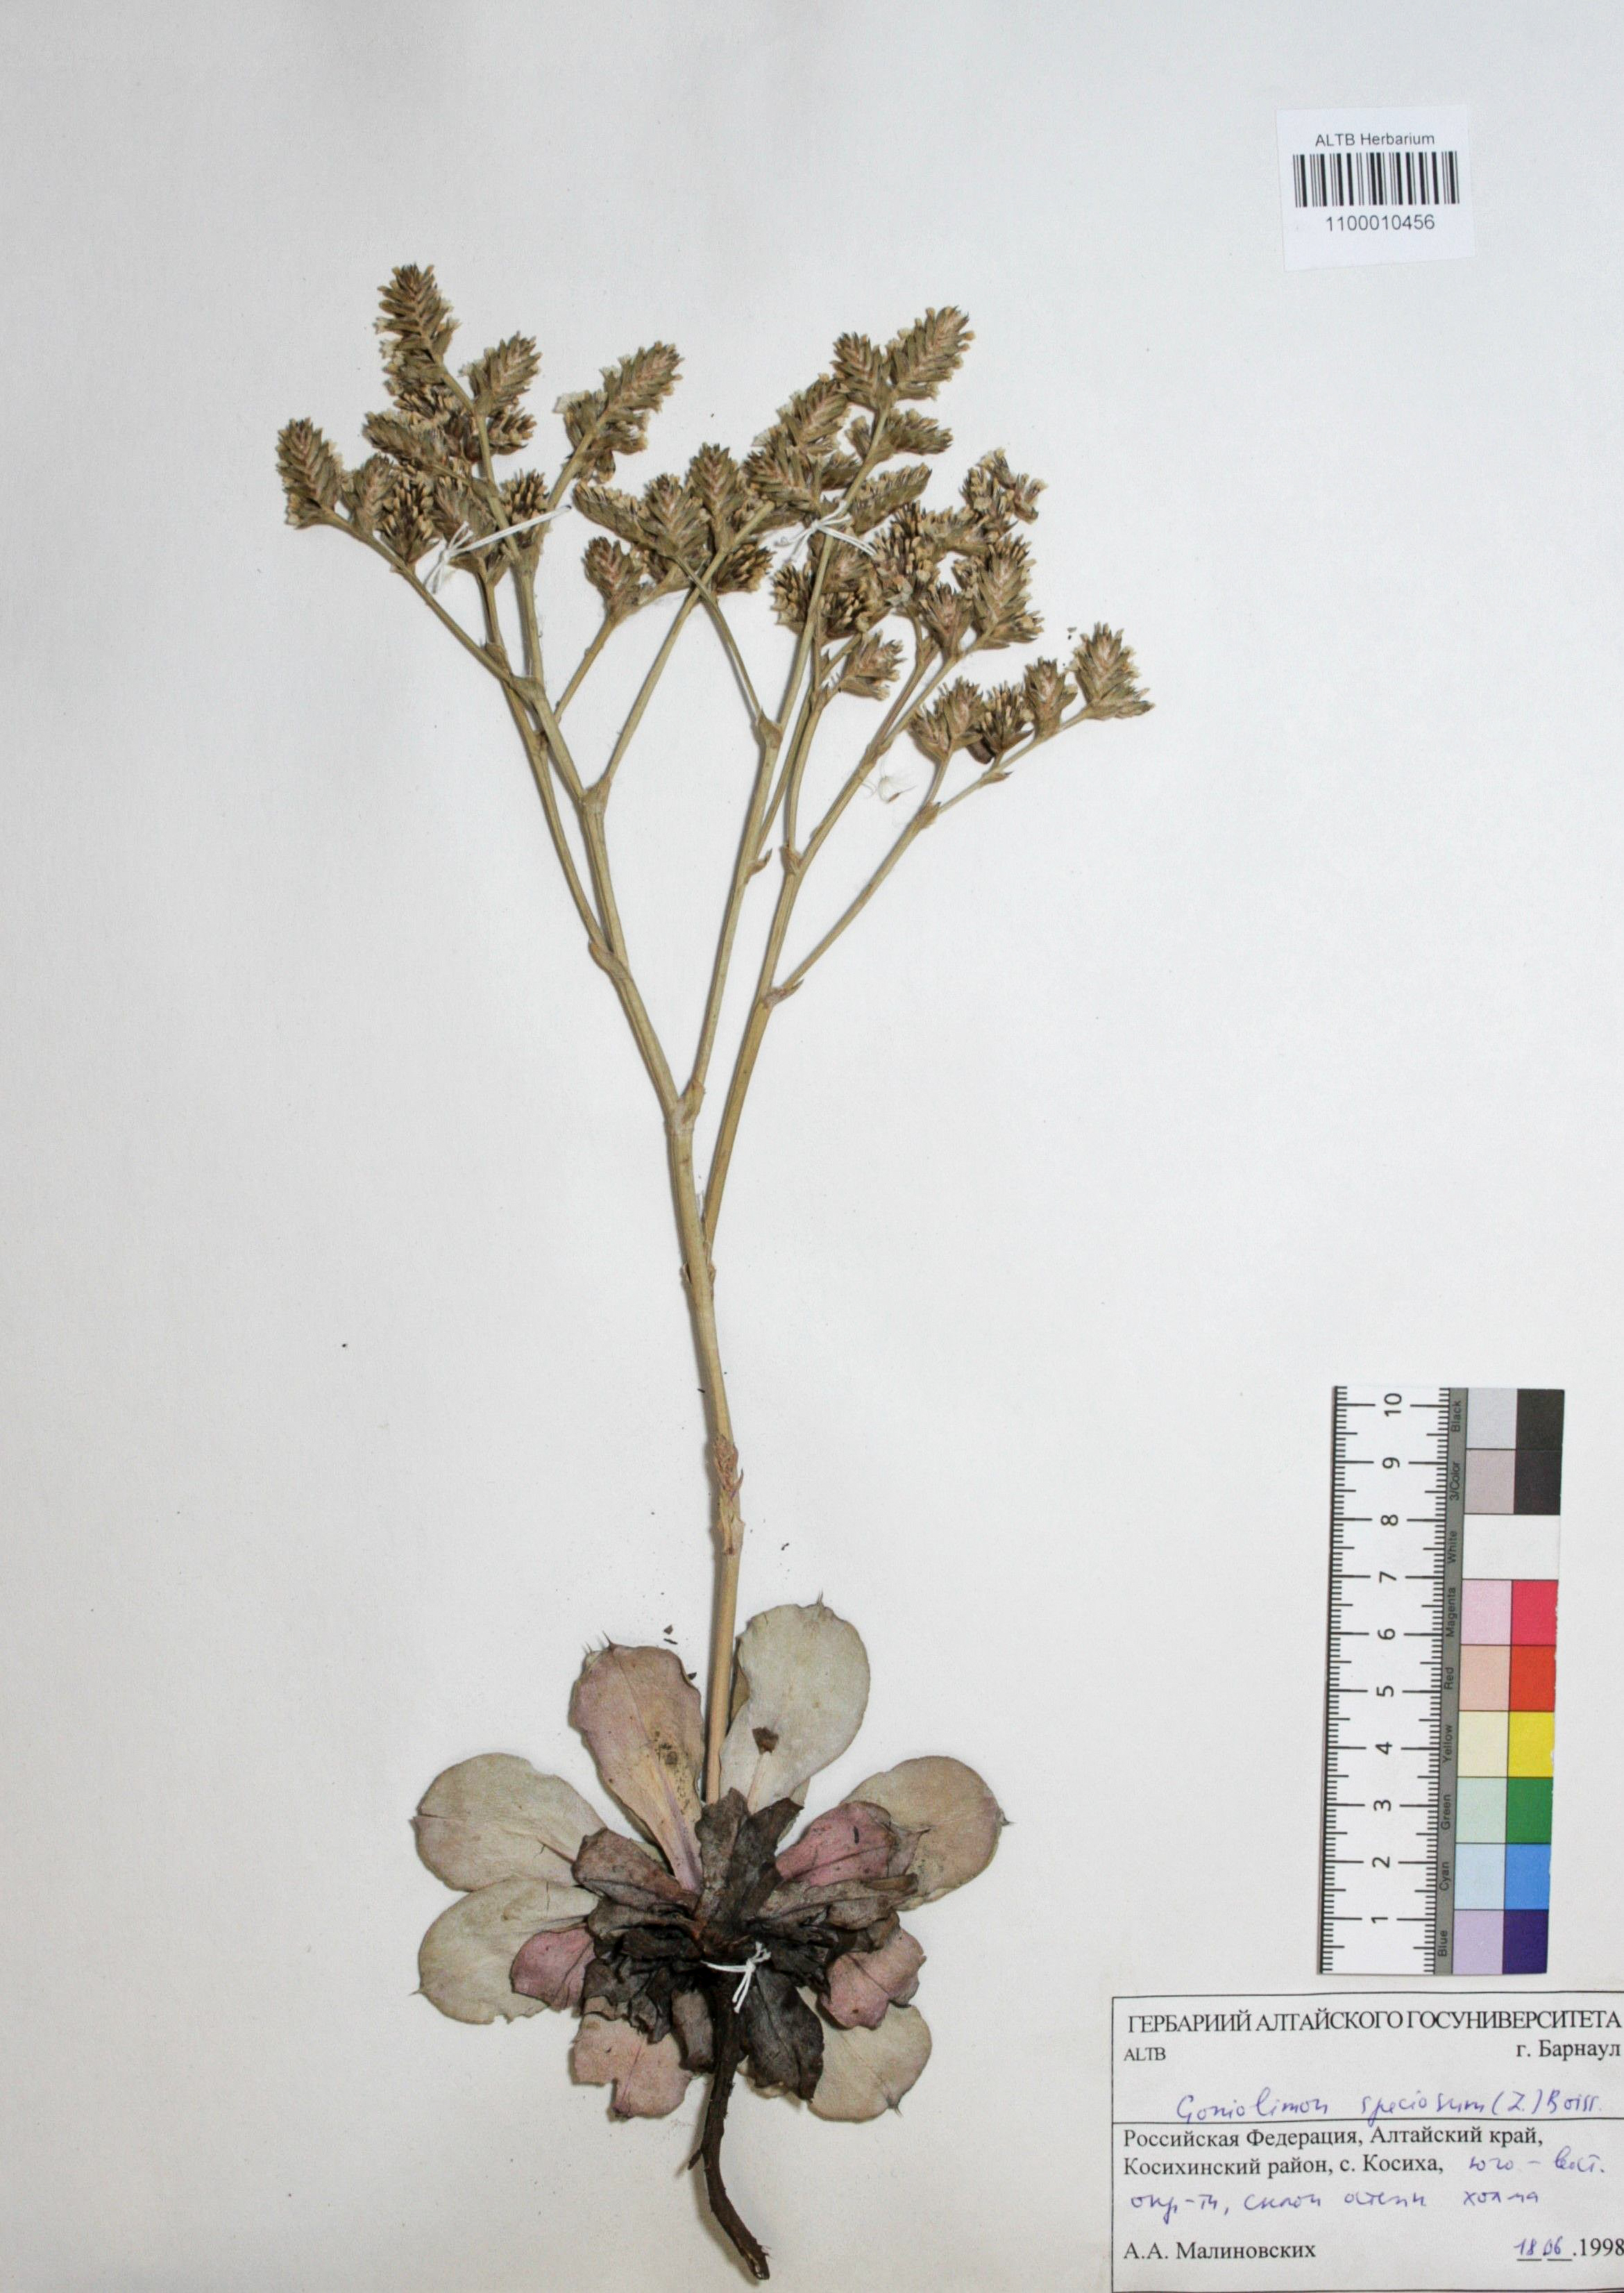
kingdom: Plantae
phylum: Tracheophyta
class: Magnoliopsida
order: Caryophyllales
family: Plumbaginaceae
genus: Goniolimon
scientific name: Goniolimon speciosum
